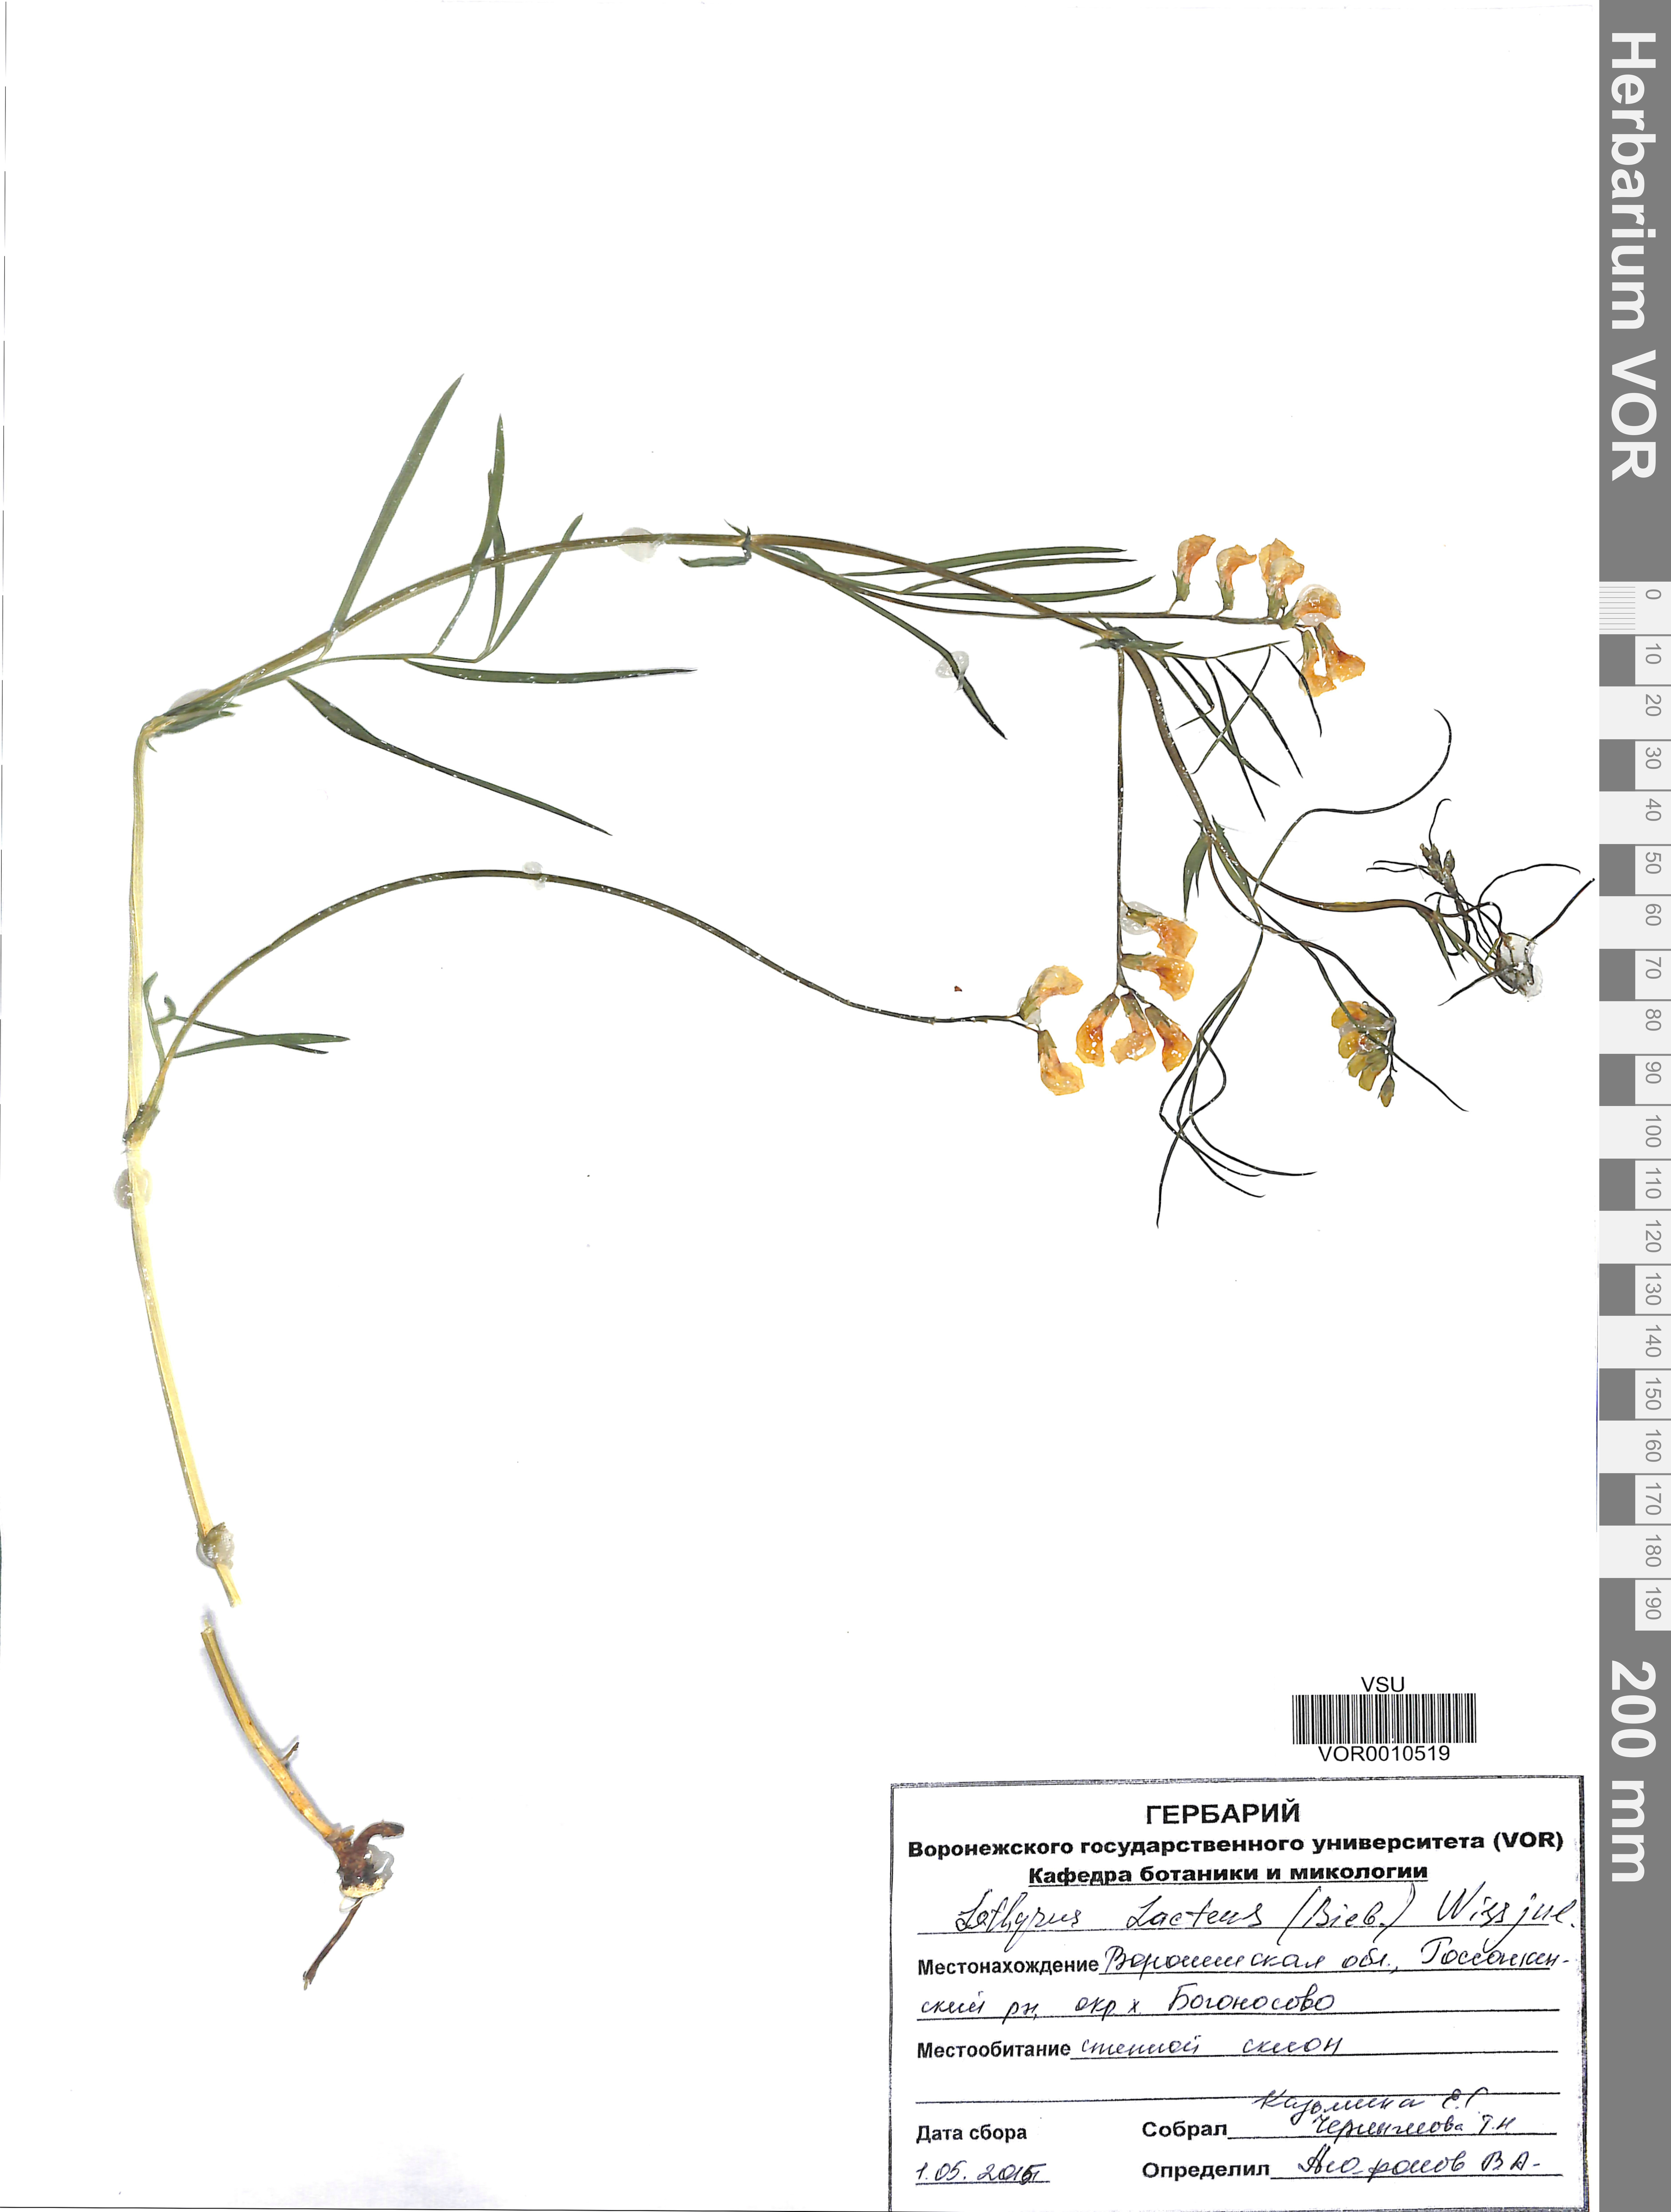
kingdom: Plantae
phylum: Tracheophyta
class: Magnoliopsida
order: Fabales
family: Fabaceae
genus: Lathyrus
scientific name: Lathyrus pannonicus
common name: Pea
